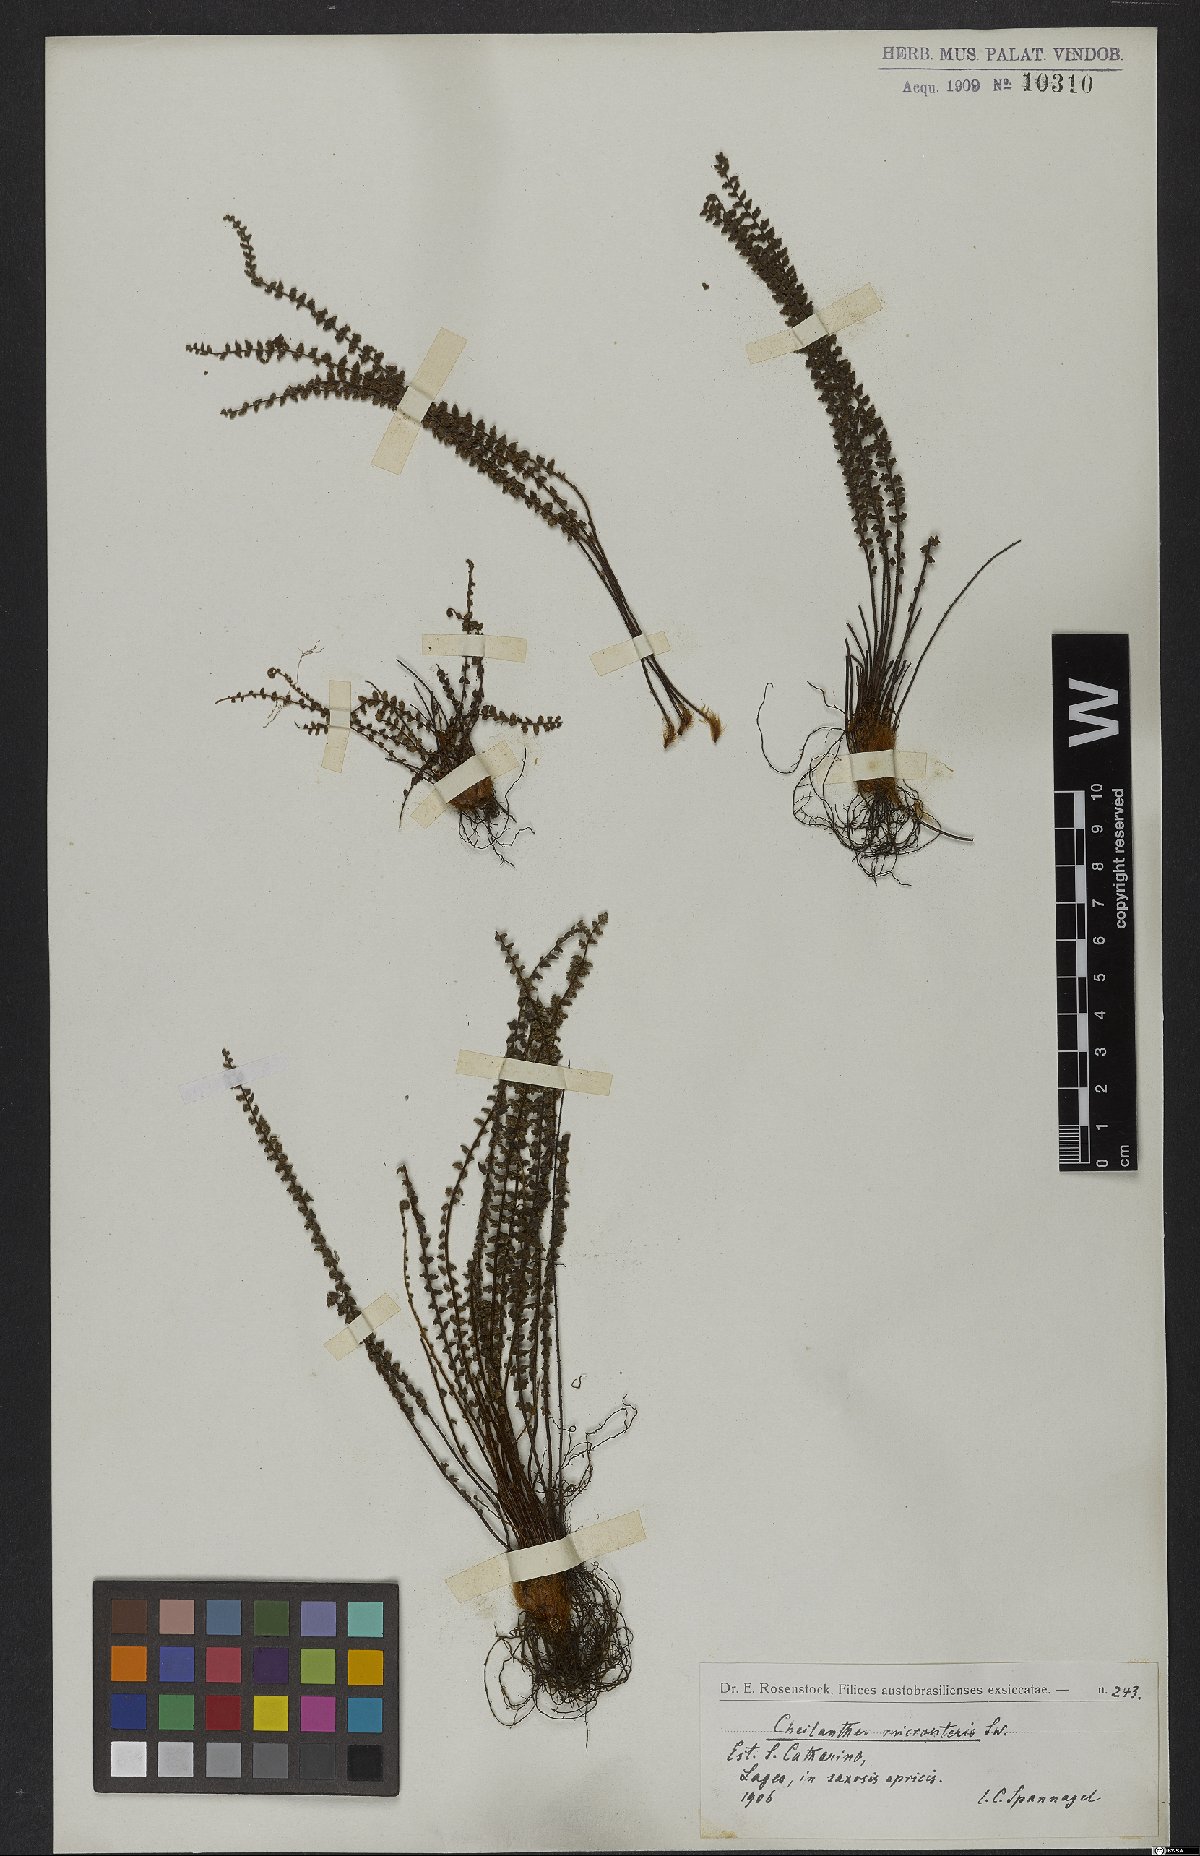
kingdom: Plantae
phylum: Tracheophyta
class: Polypodiopsida
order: Polypodiales
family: Pteridaceae
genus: Cheilanthes
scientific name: Cheilanthes micropteris
